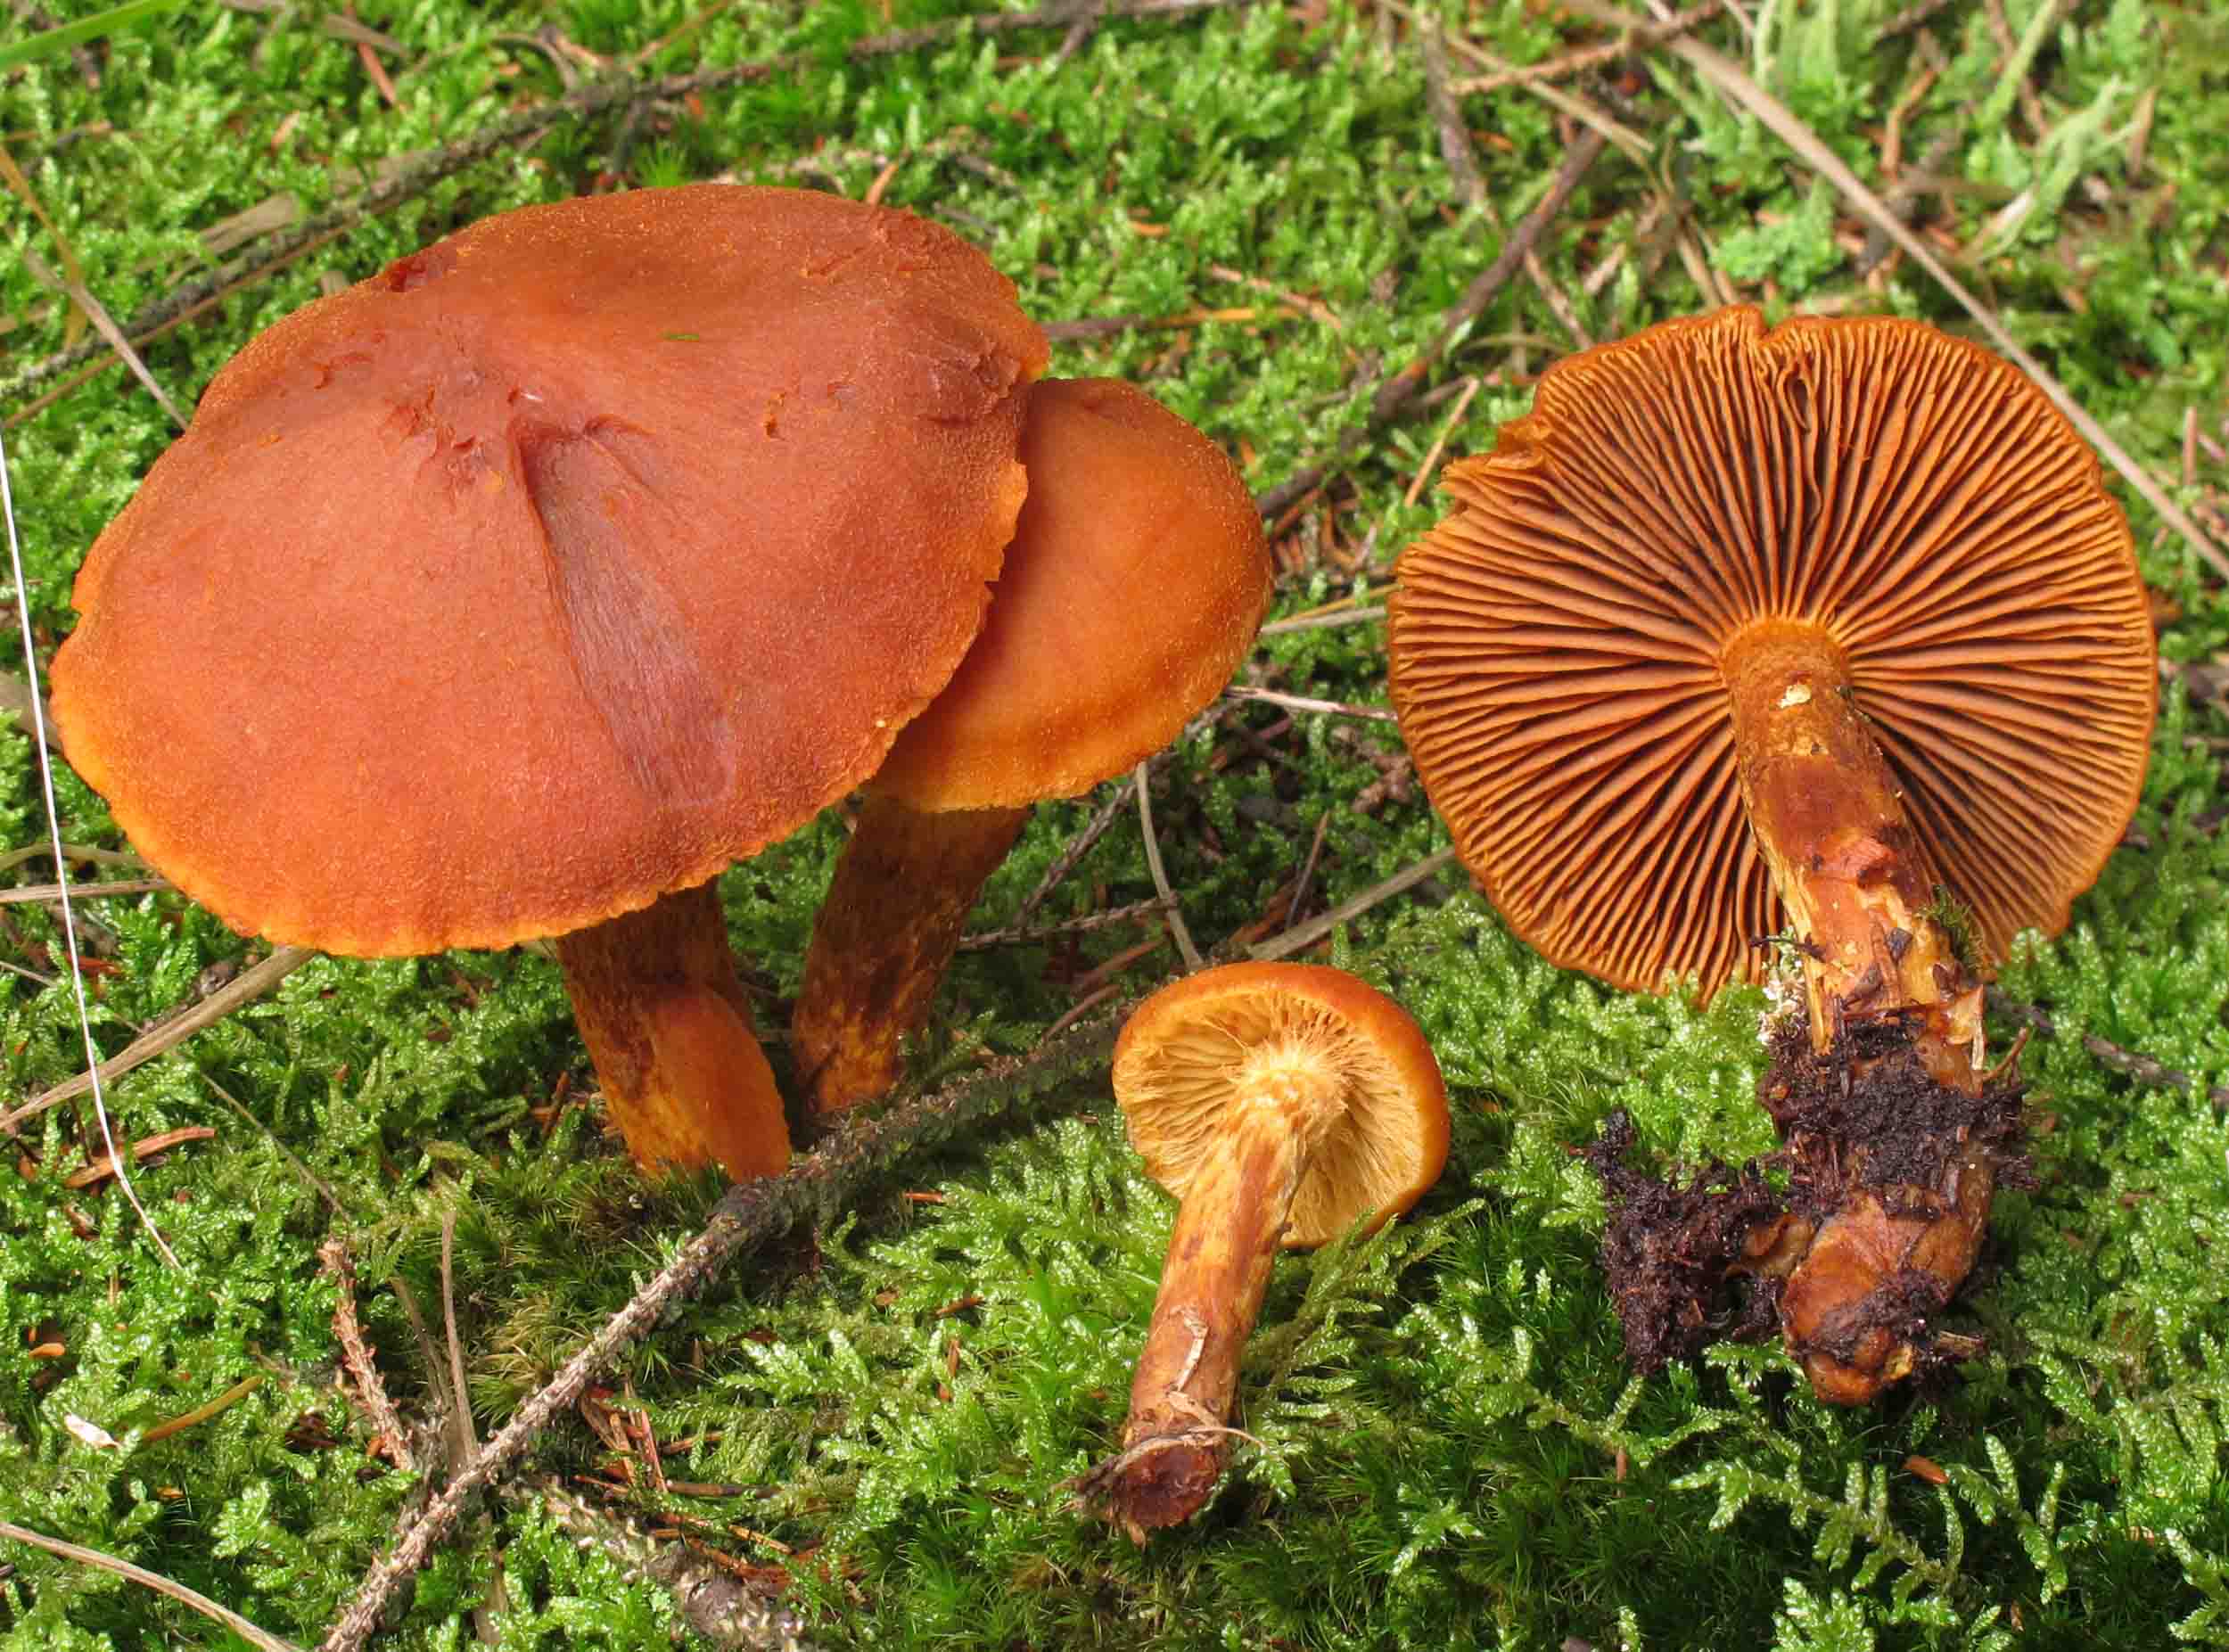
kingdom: Fungi
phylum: Basidiomycota
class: Agaricomycetes
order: Agaricales
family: Cortinariaceae
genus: Aureonarius
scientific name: Aureonarius limonius
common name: orangegul slørhat
